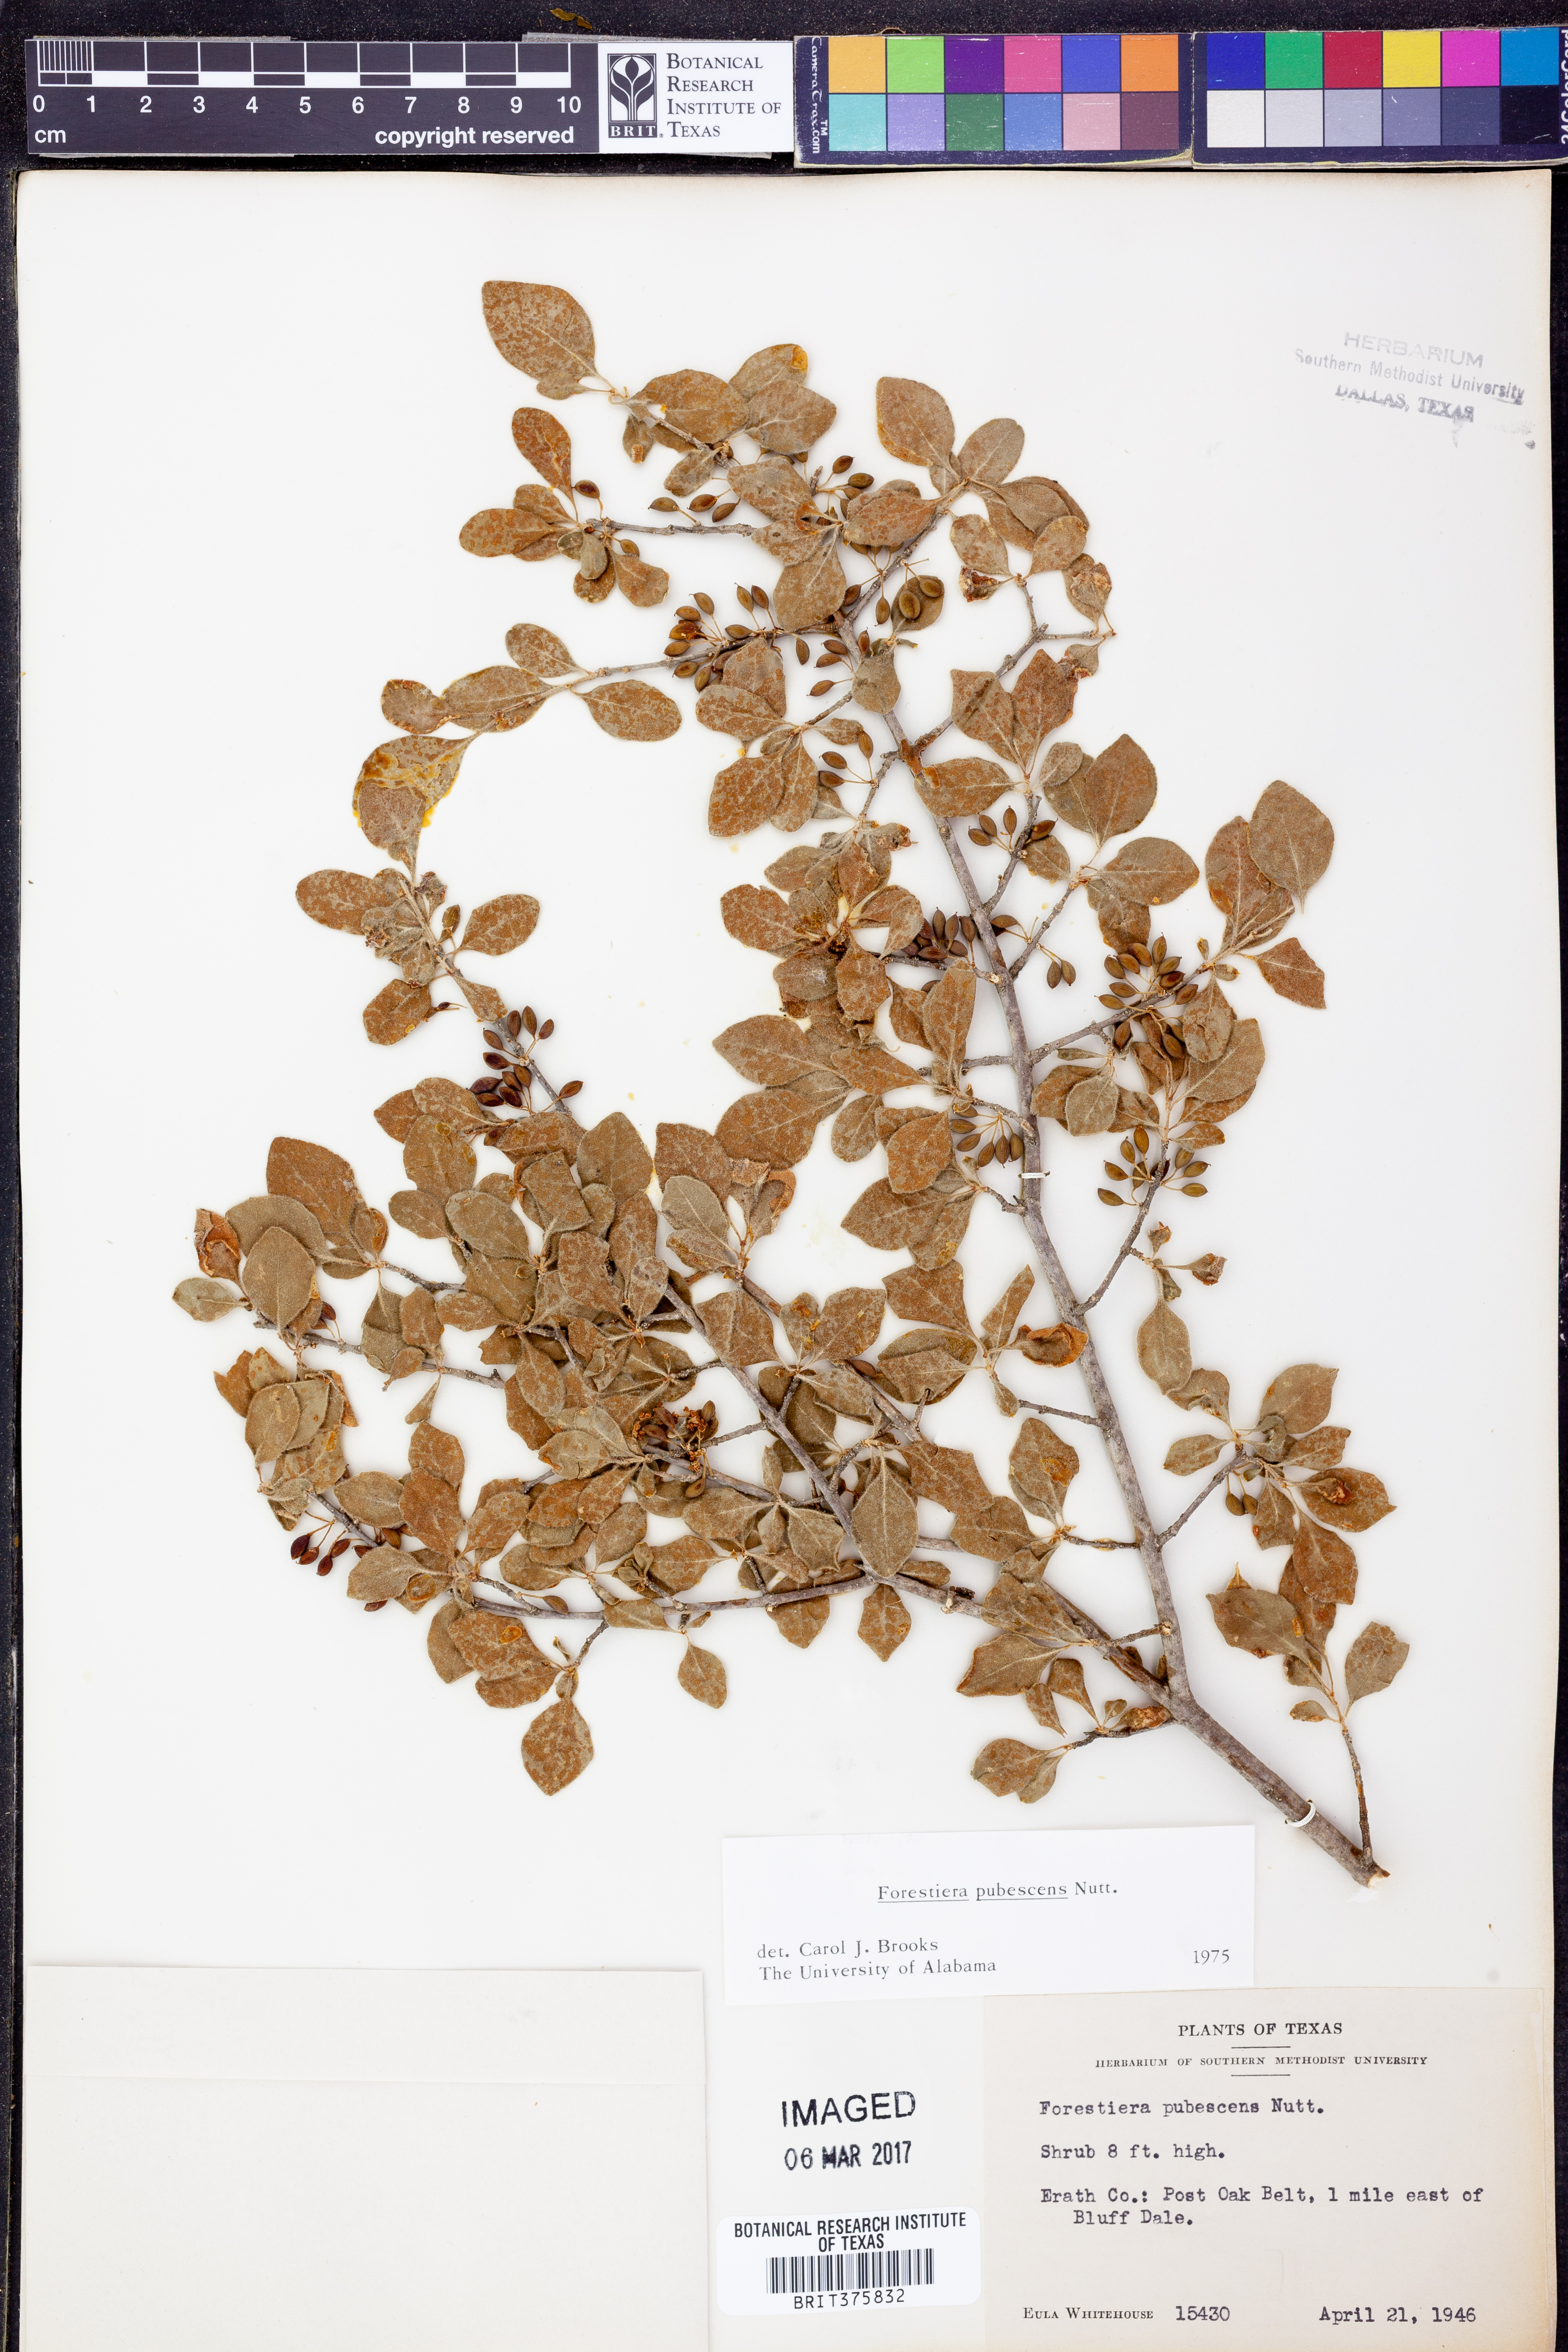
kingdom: Plantae
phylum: Tracheophyta
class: Magnoliopsida
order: Lamiales
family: Oleaceae
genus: Forestiera
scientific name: Forestiera pubescens
